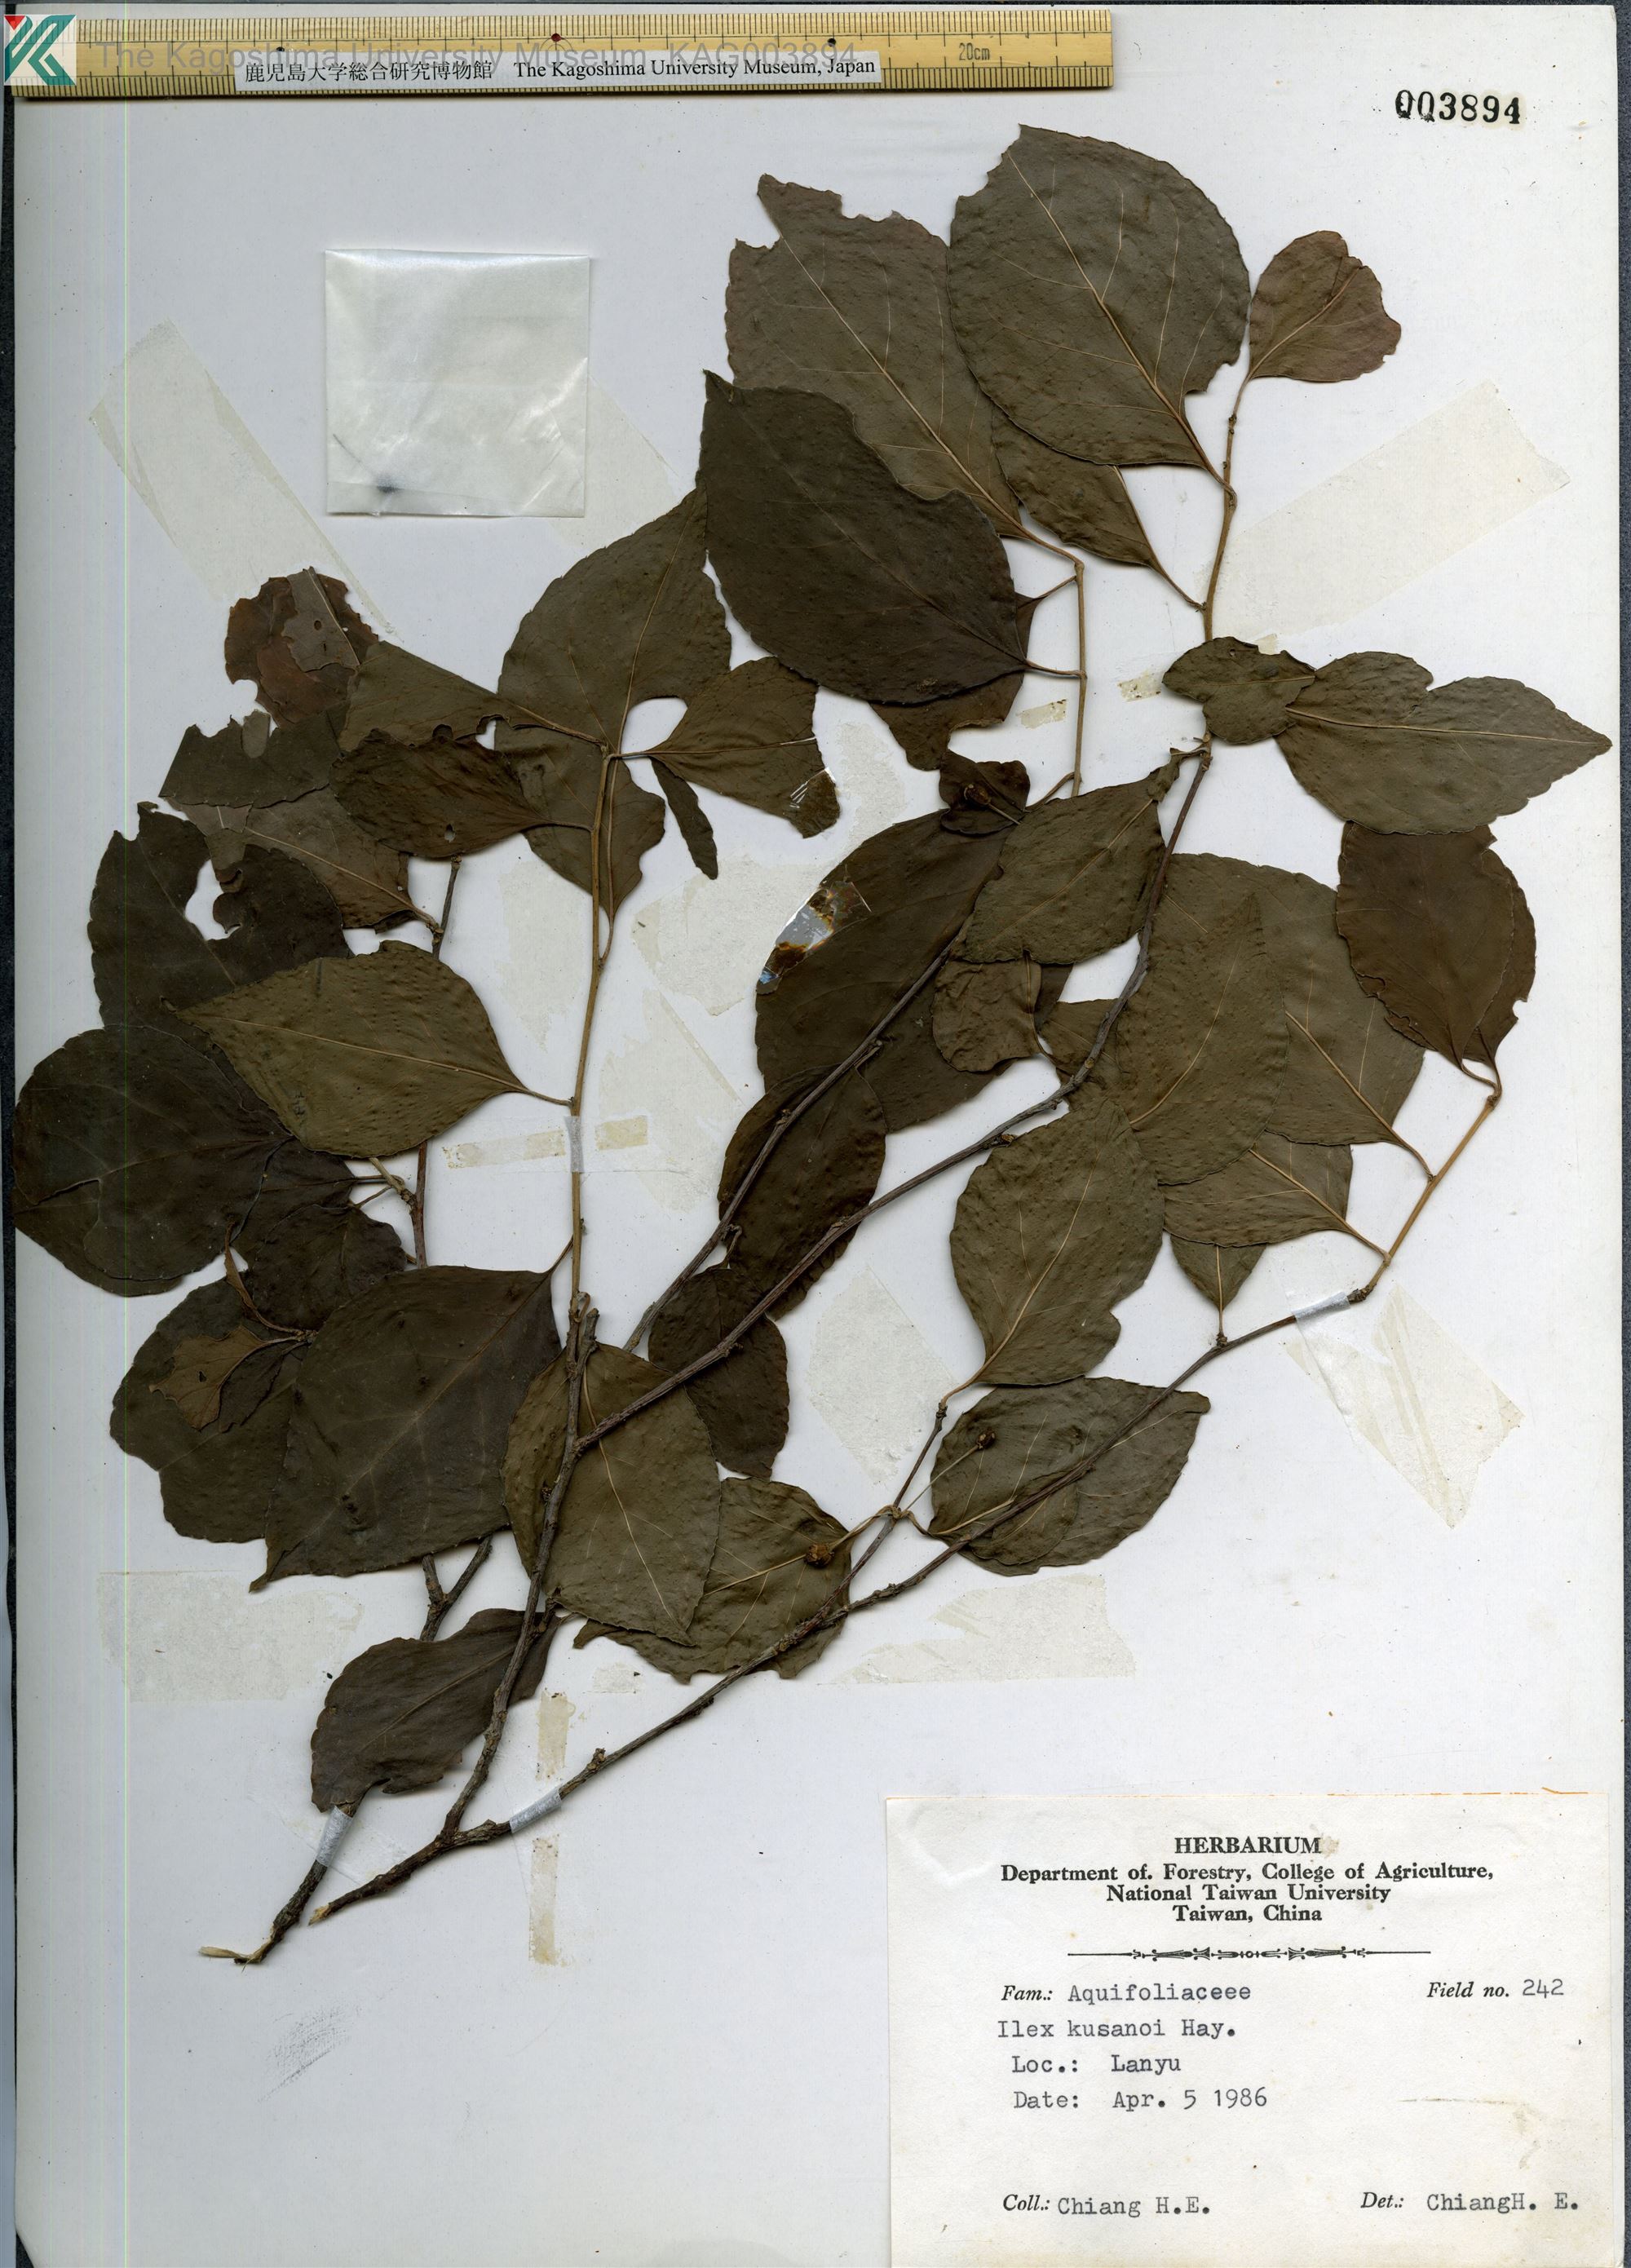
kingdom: Plantae
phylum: Tracheophyta
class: Magnoliopsida
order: Aquifoliales
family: Aquifoliaceae
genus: Ilex
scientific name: Ilex kusanoi
